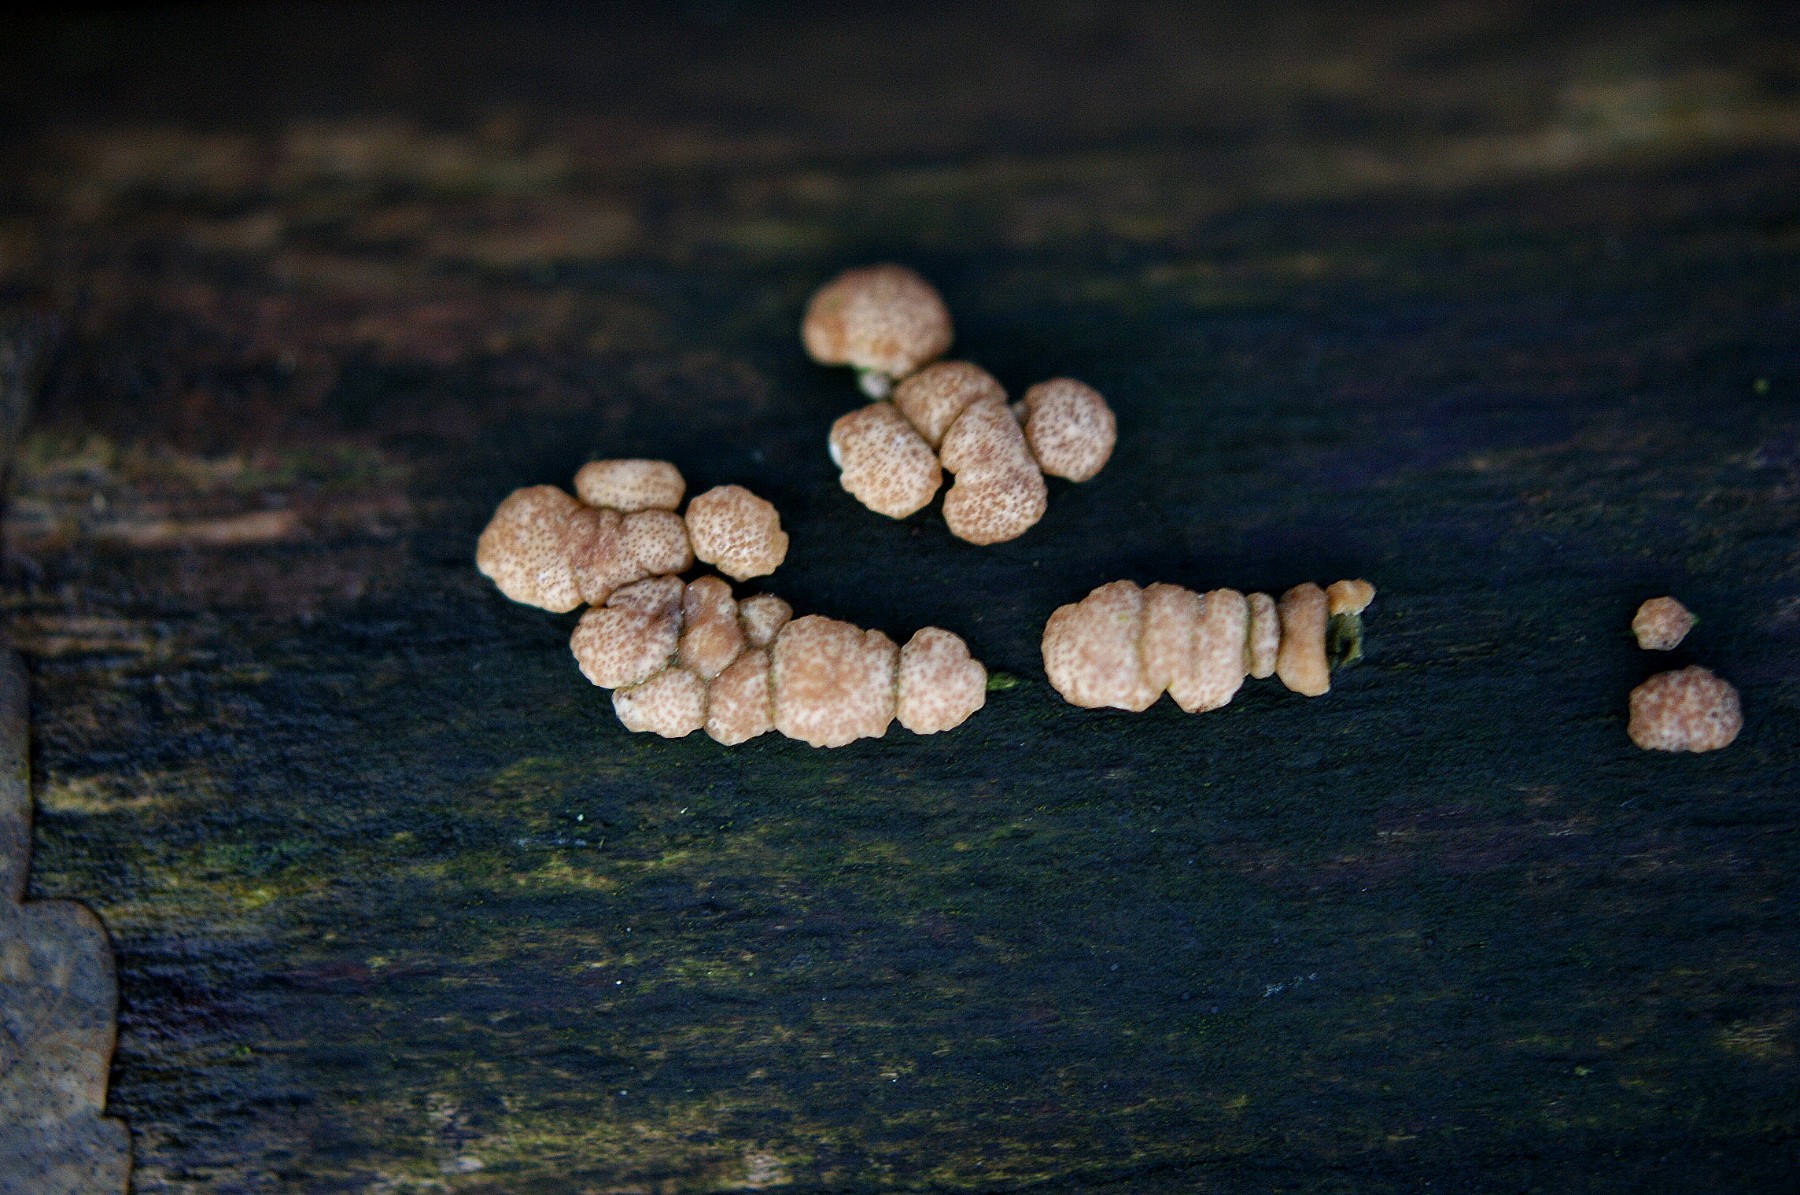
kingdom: Fungi
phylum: Ascomycota
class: Sordariomycetes
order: Hypocreales
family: Hypocreaceae
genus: Trichoderma
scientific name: Trichoderma europaeum
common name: rosabrun kødkerne
